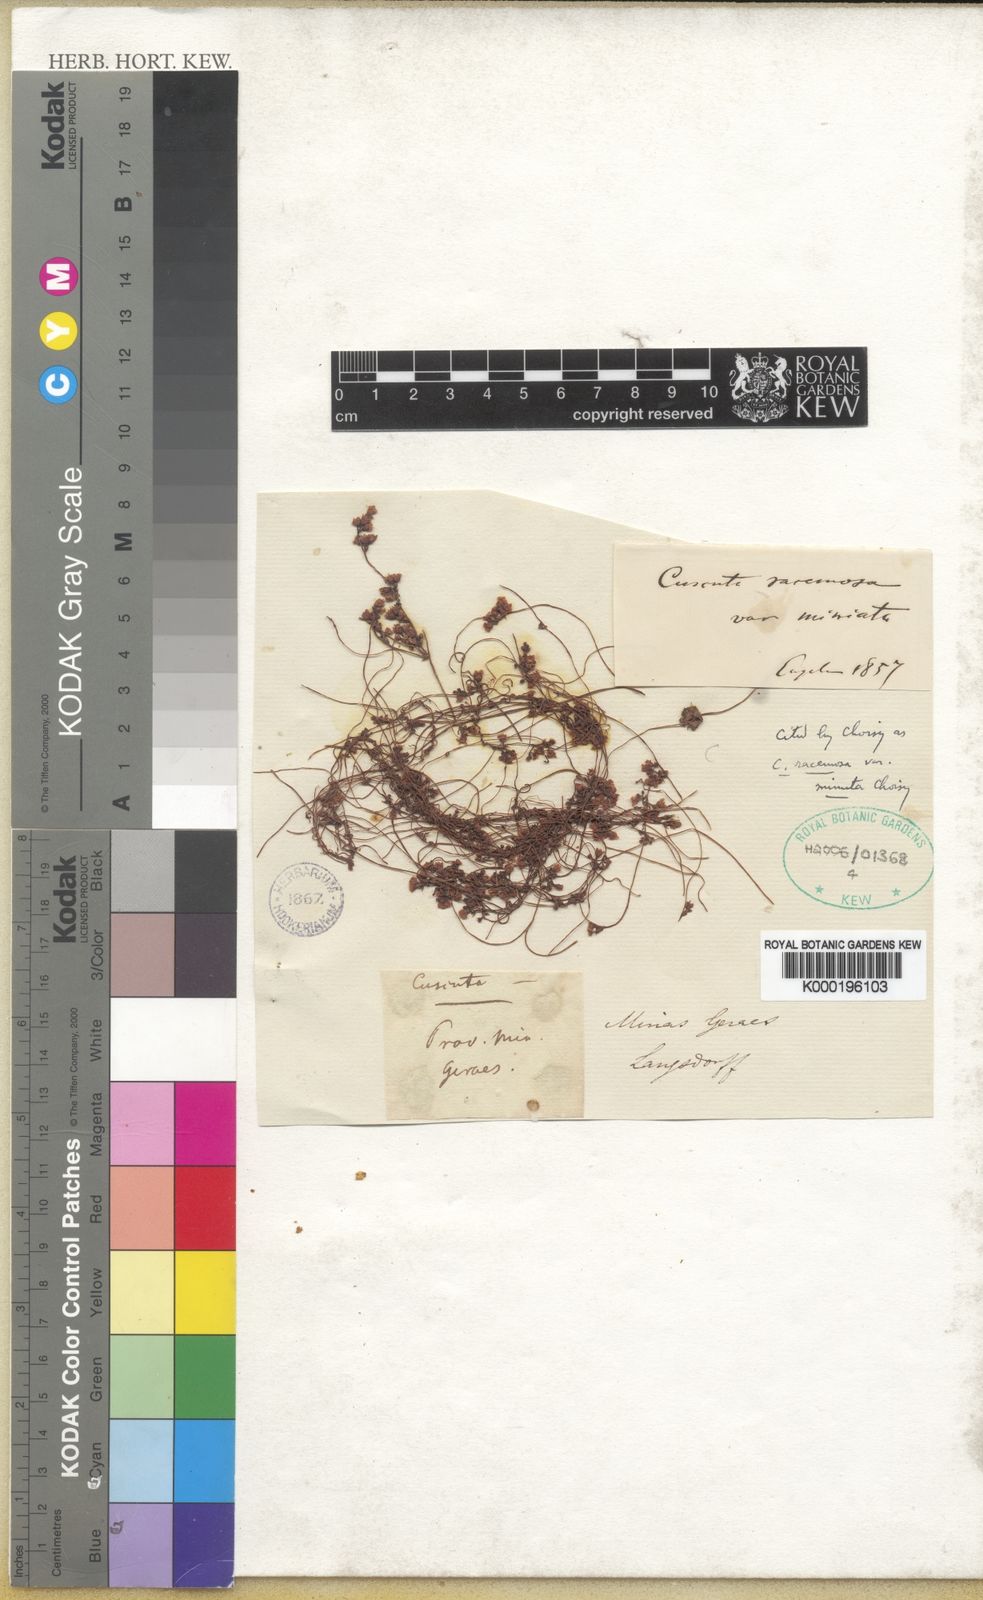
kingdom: Plantae
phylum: Tracheophyta
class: Magnoliopsida
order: Solanales
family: Convolvulaceae
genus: Cuscuta
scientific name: Cuscuta racemosa
